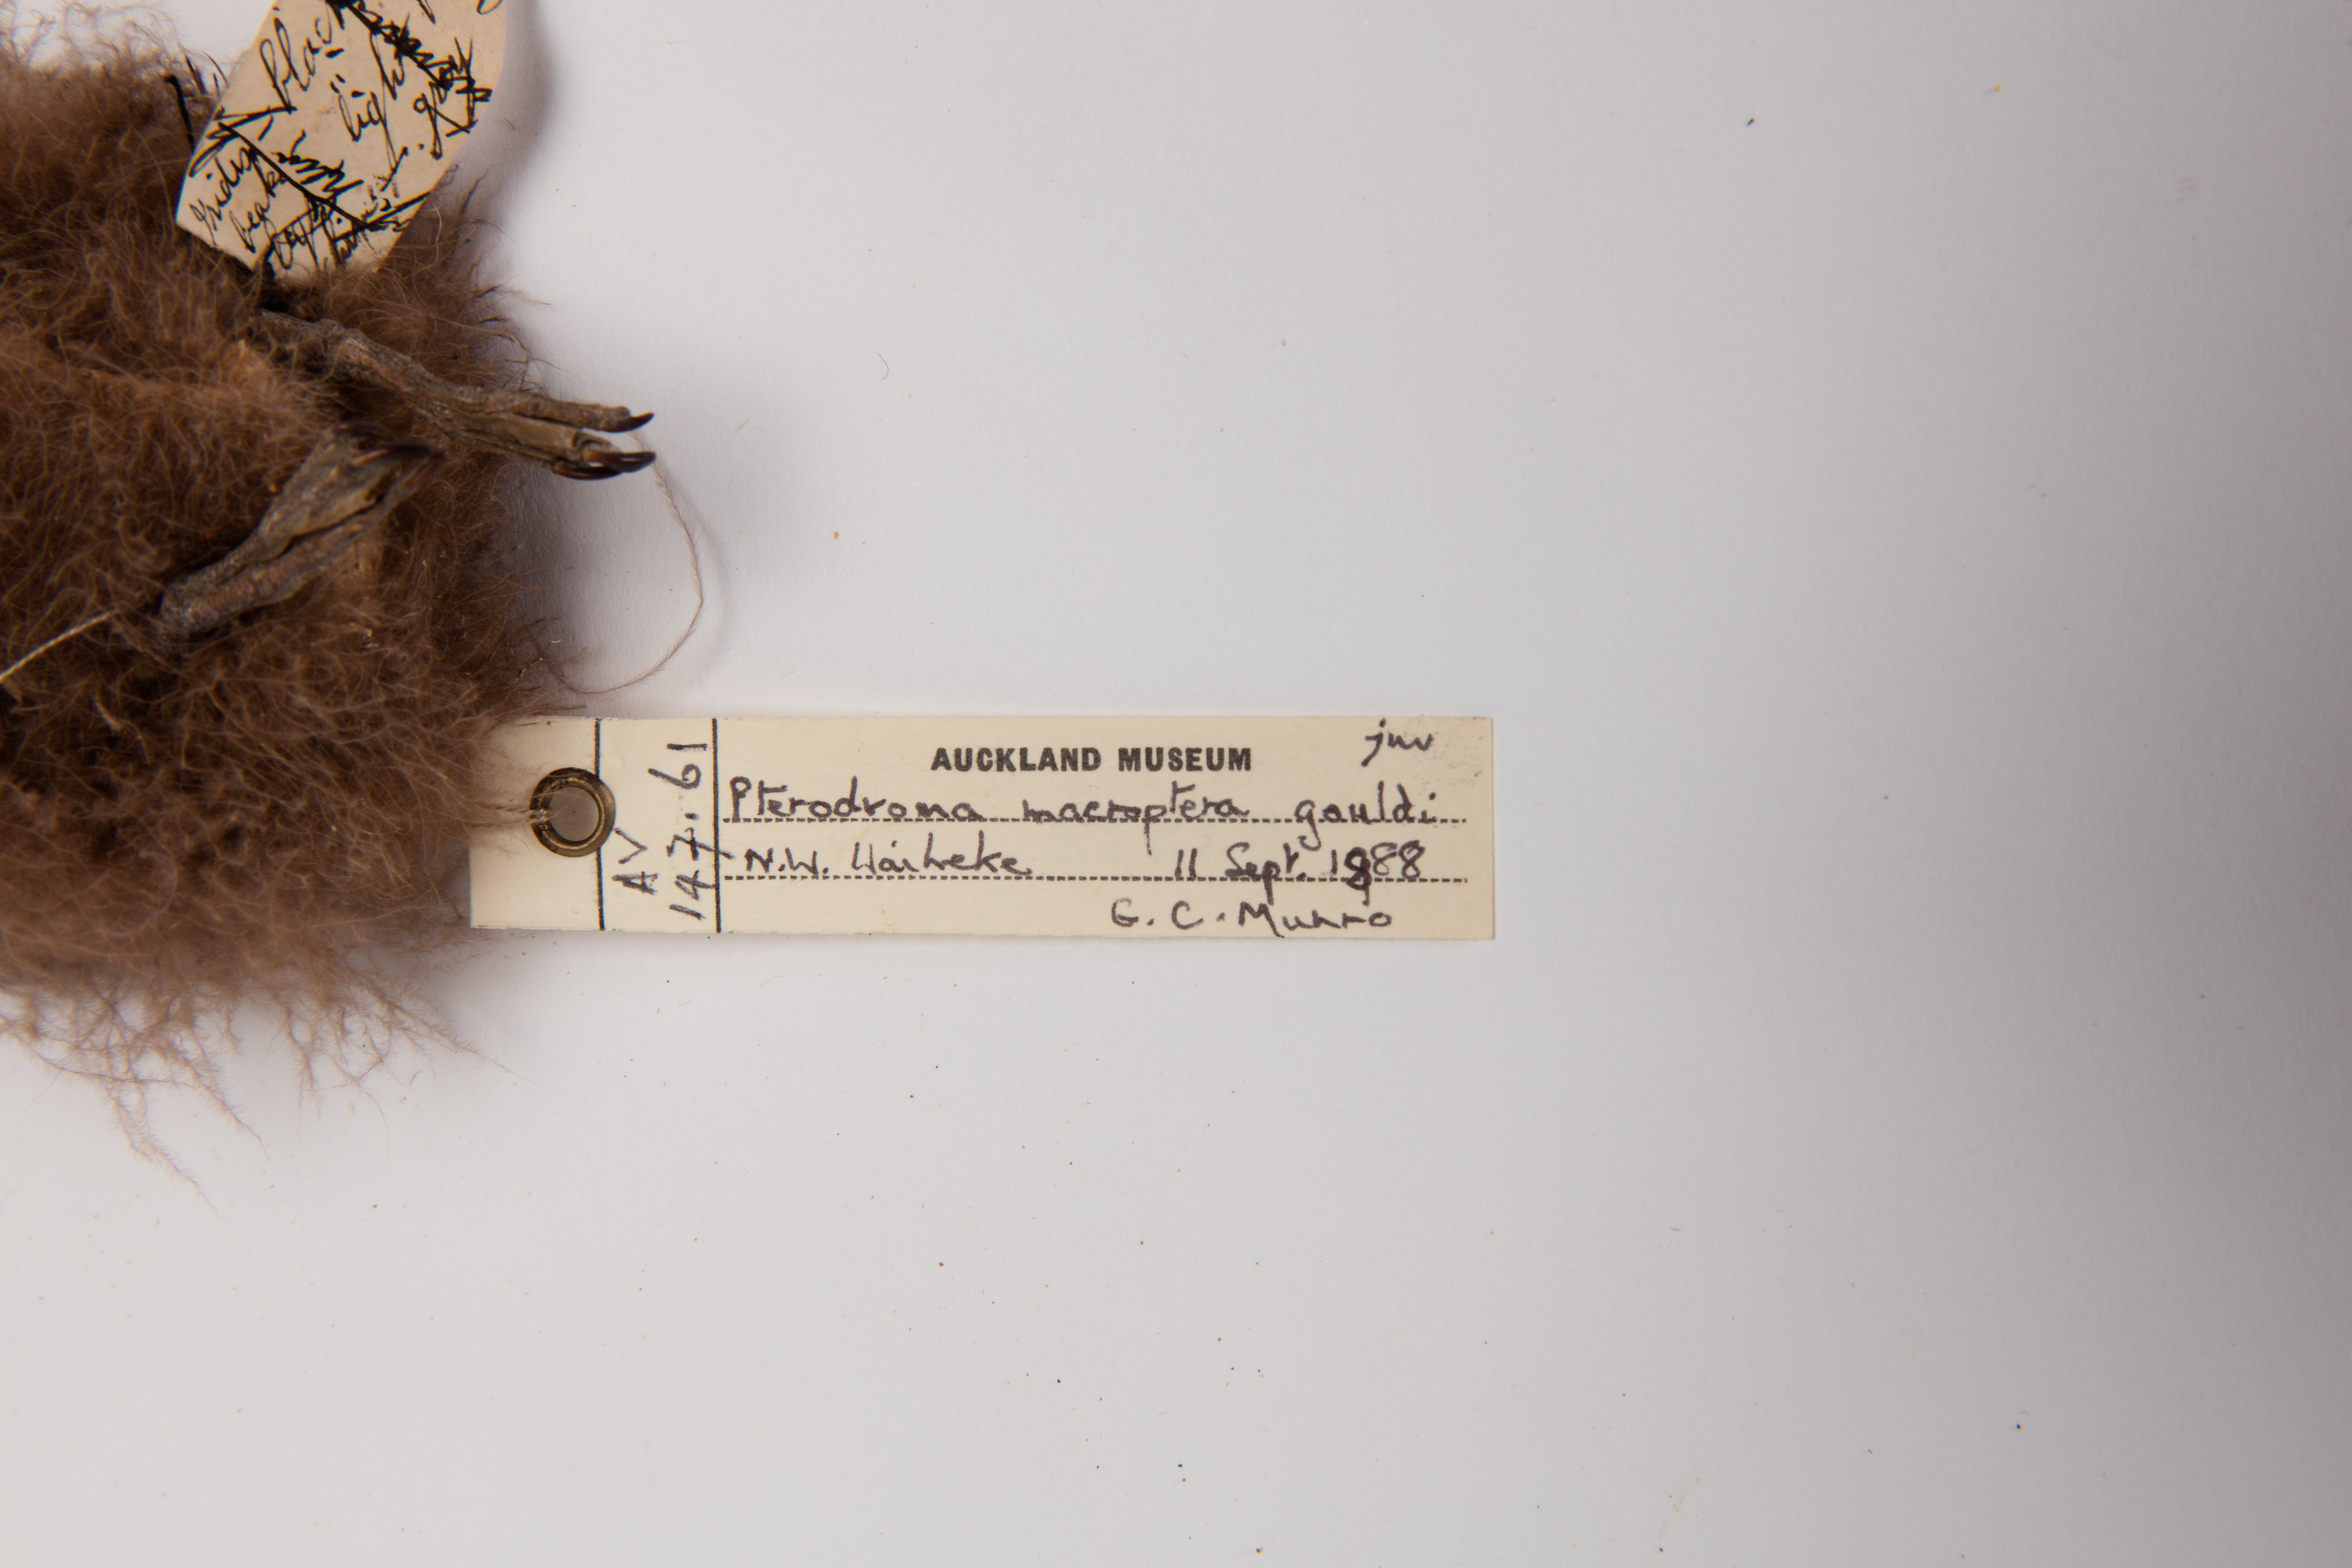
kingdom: Animalia
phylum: Chordata
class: Aves
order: Procellariiformes
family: Procellariidae
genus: Pterodroma
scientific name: Pterodroma macroptera
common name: Great-winged petrel
